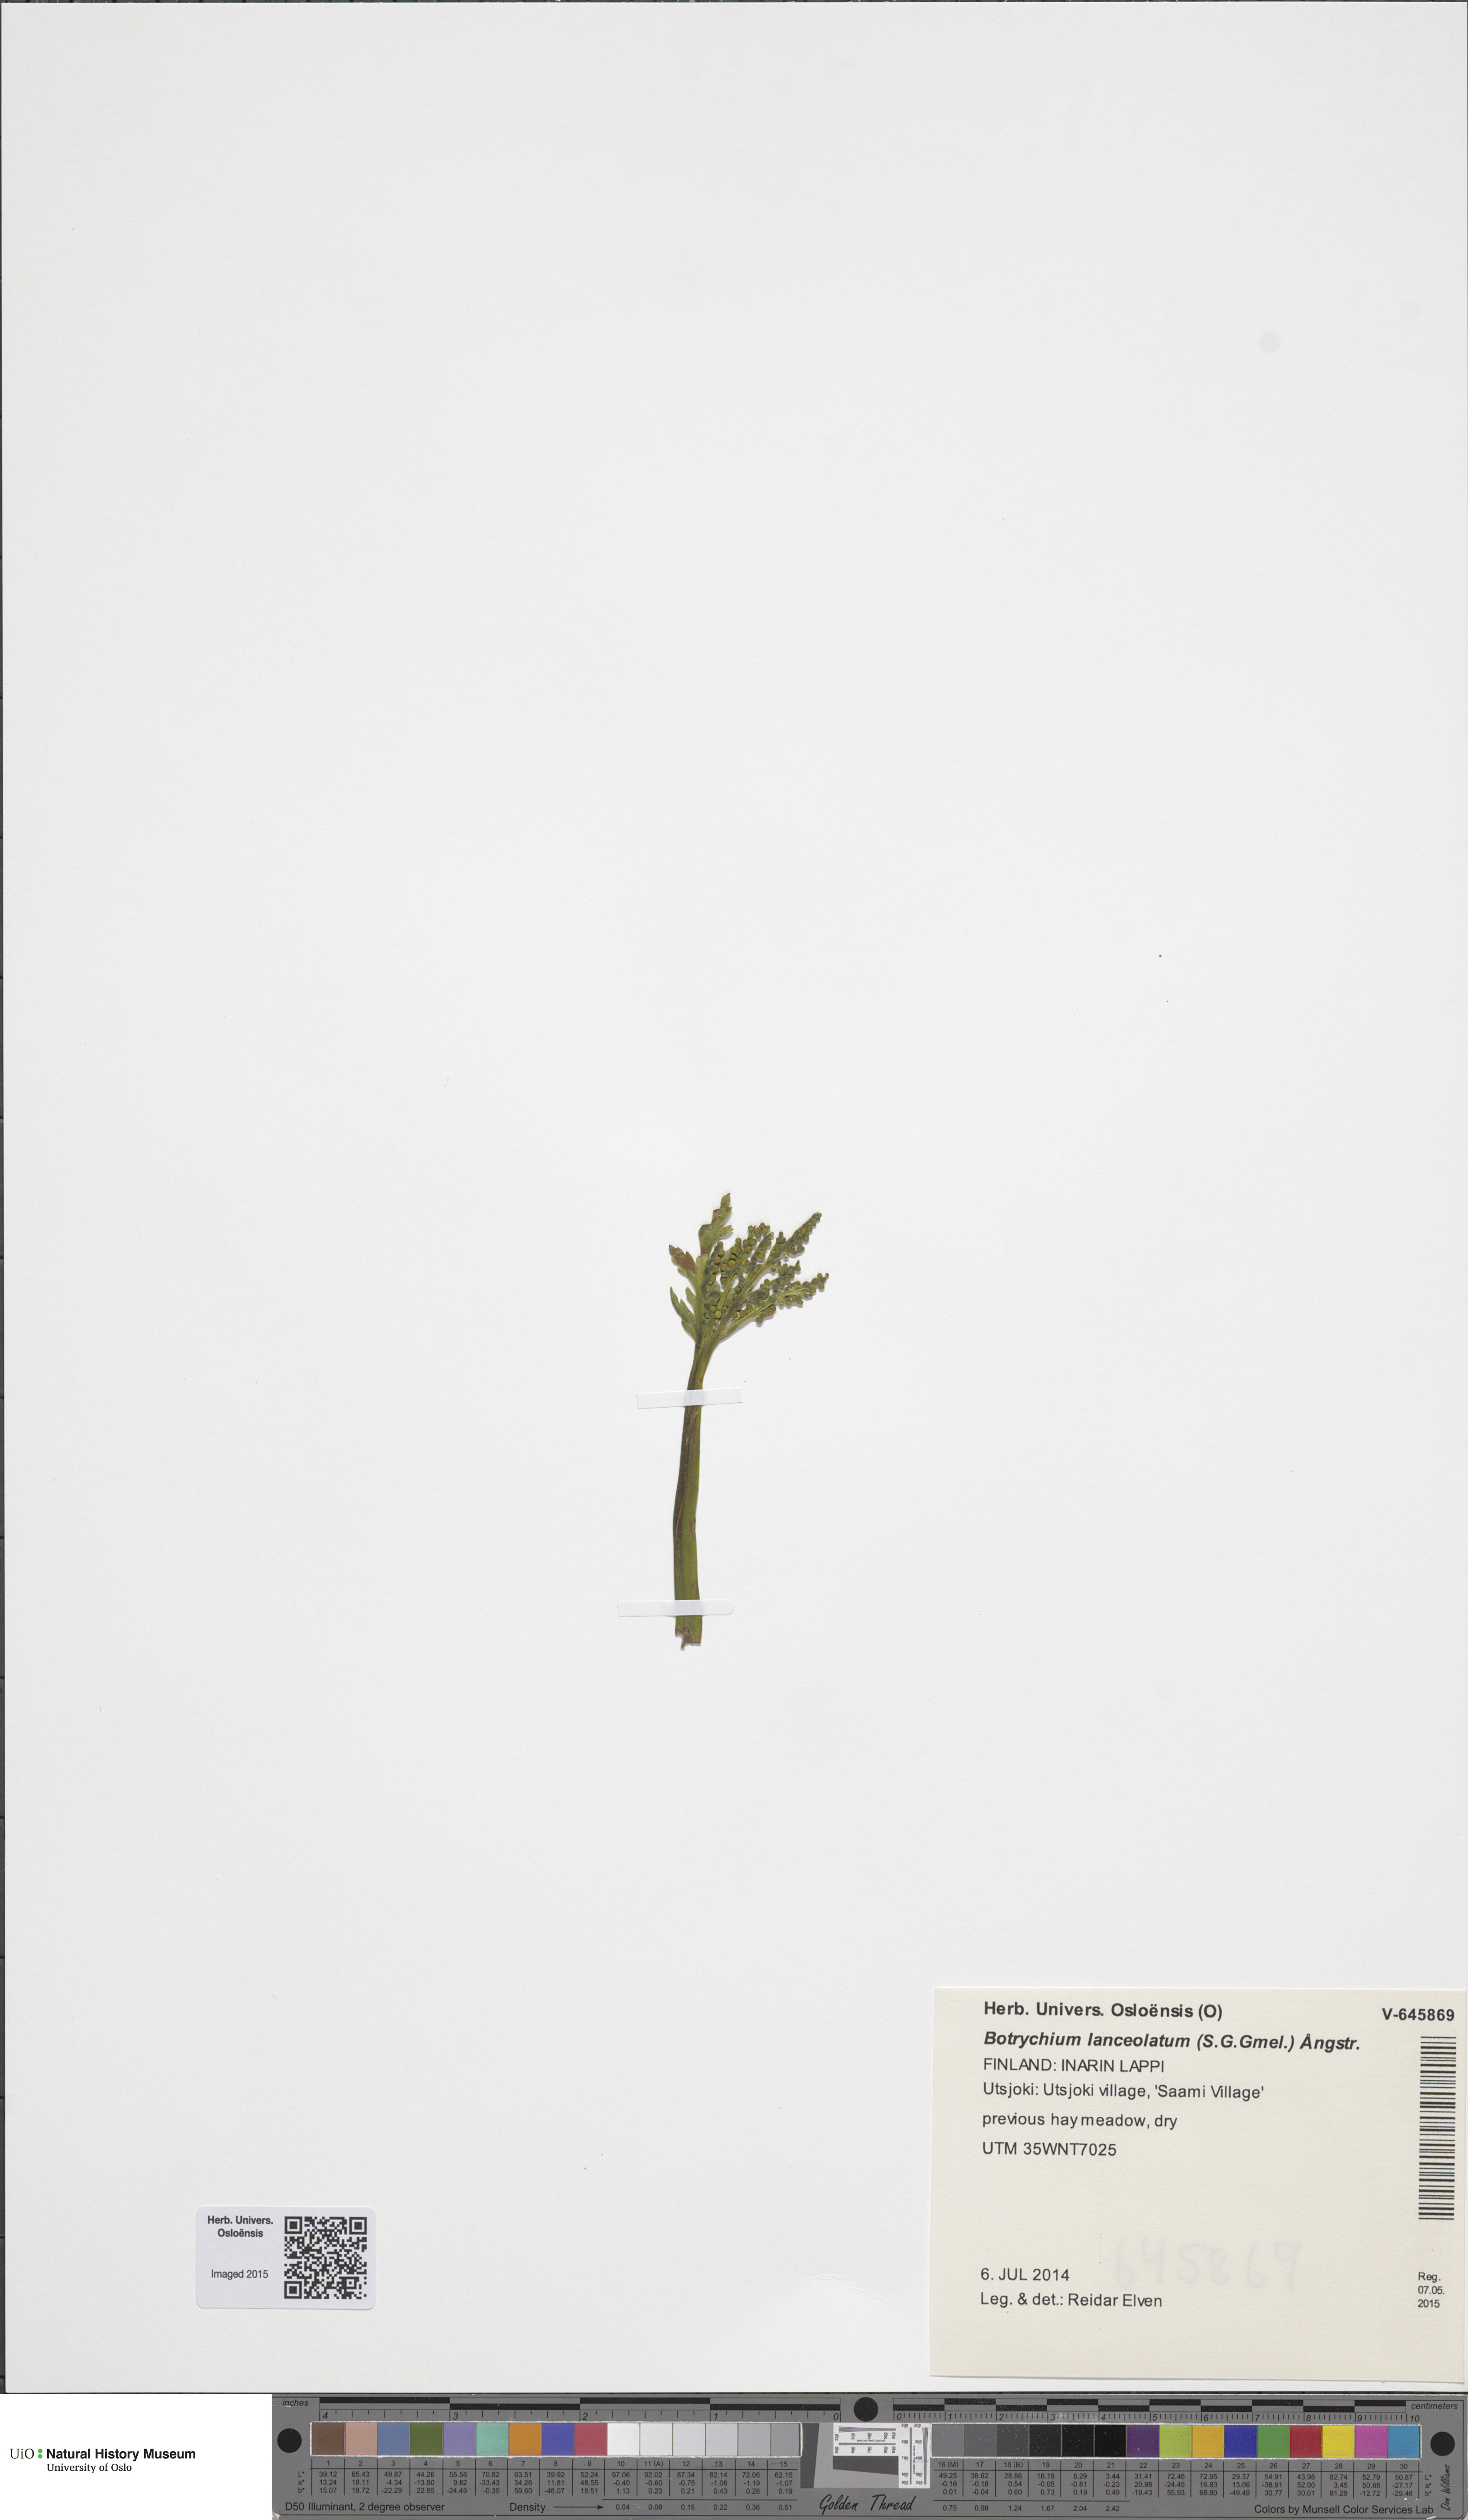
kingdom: Plantae
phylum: Tracheophyta
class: Polypodiopsida
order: Ophioglossales
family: Ophioglossaceae
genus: Botrychium
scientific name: Botrychium lanceolatum
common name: Lance-leaved moonwort
